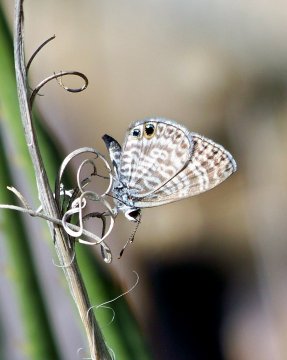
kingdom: Animalia
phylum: Arthropoda
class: Insecta
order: Lepidoptera
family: Lycaenidae
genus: Leptotes
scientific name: Leptotes marina
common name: Marine Blue
